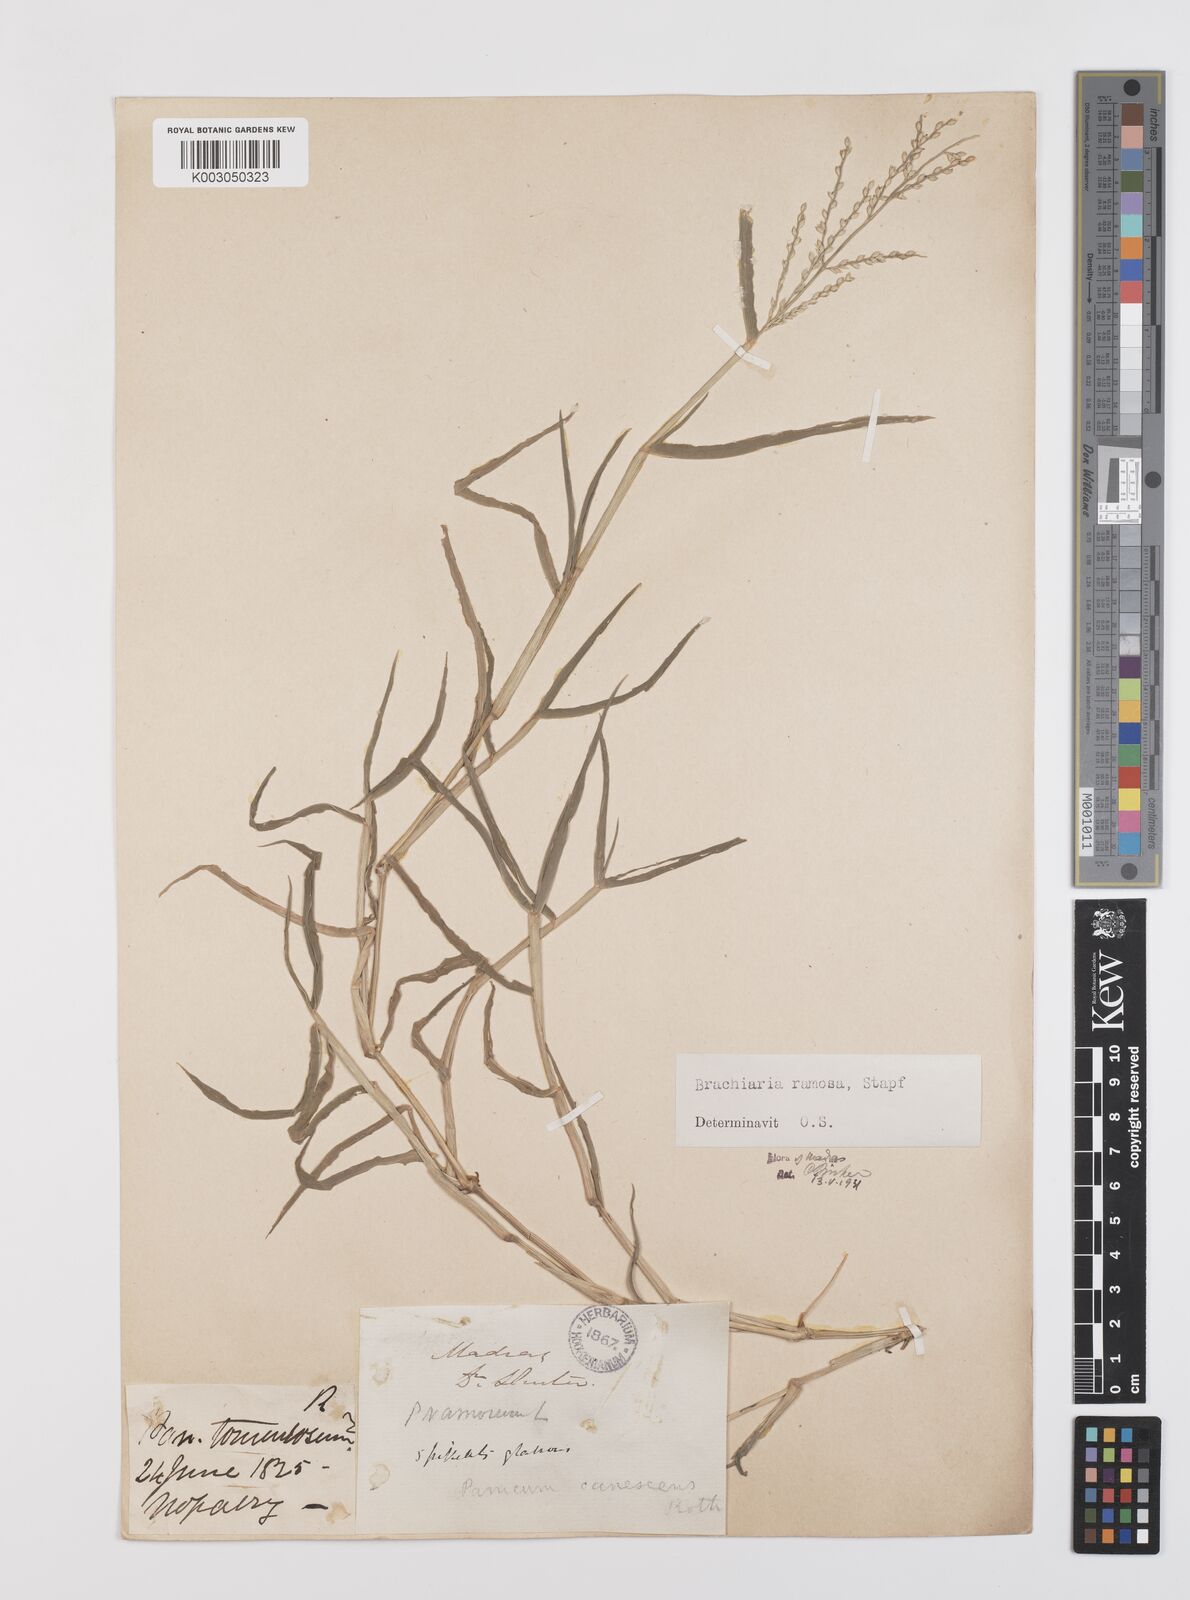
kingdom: Plantae
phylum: Tracheophyta
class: Liliopsida
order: Poales
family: Poaceae
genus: Urochloa
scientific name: Urochloa ramosa
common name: Browntop millet
